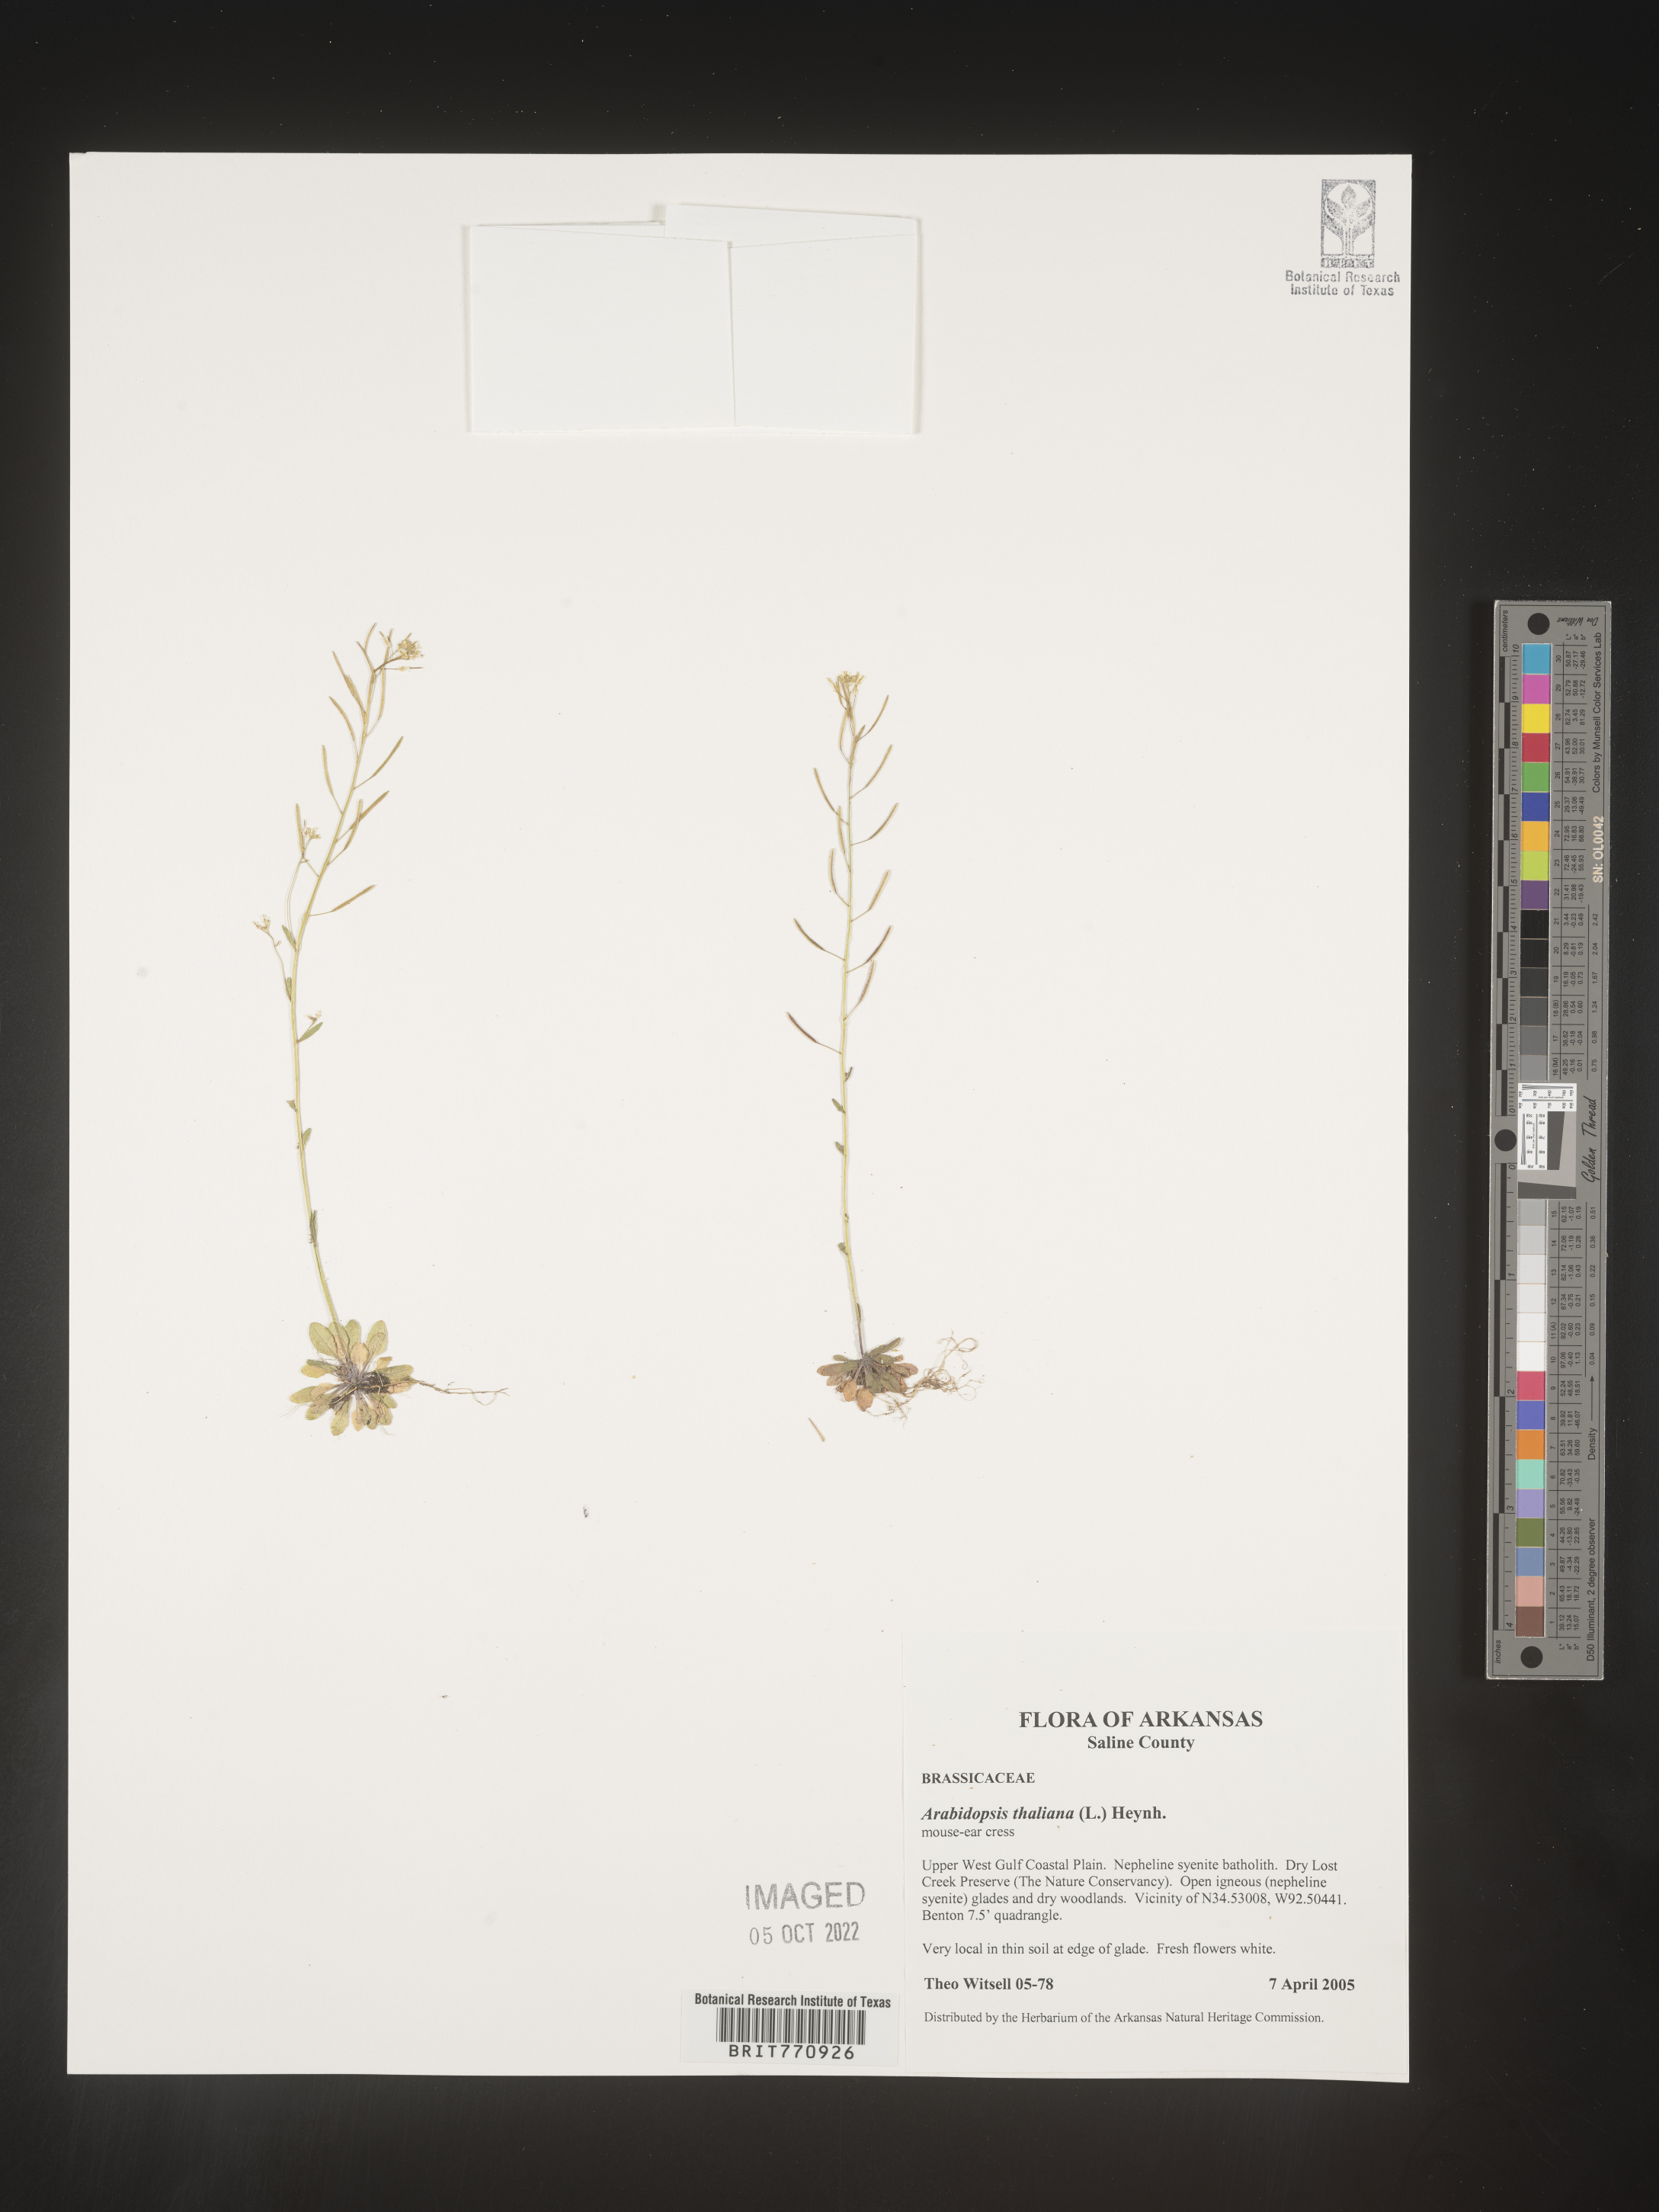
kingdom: Plantae
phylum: Tracheophyta
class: Magnoliopsida
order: Brassicales
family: Brassicaceae
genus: Arabidopsis
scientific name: Arabidopsis thaliana
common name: Thale cress
